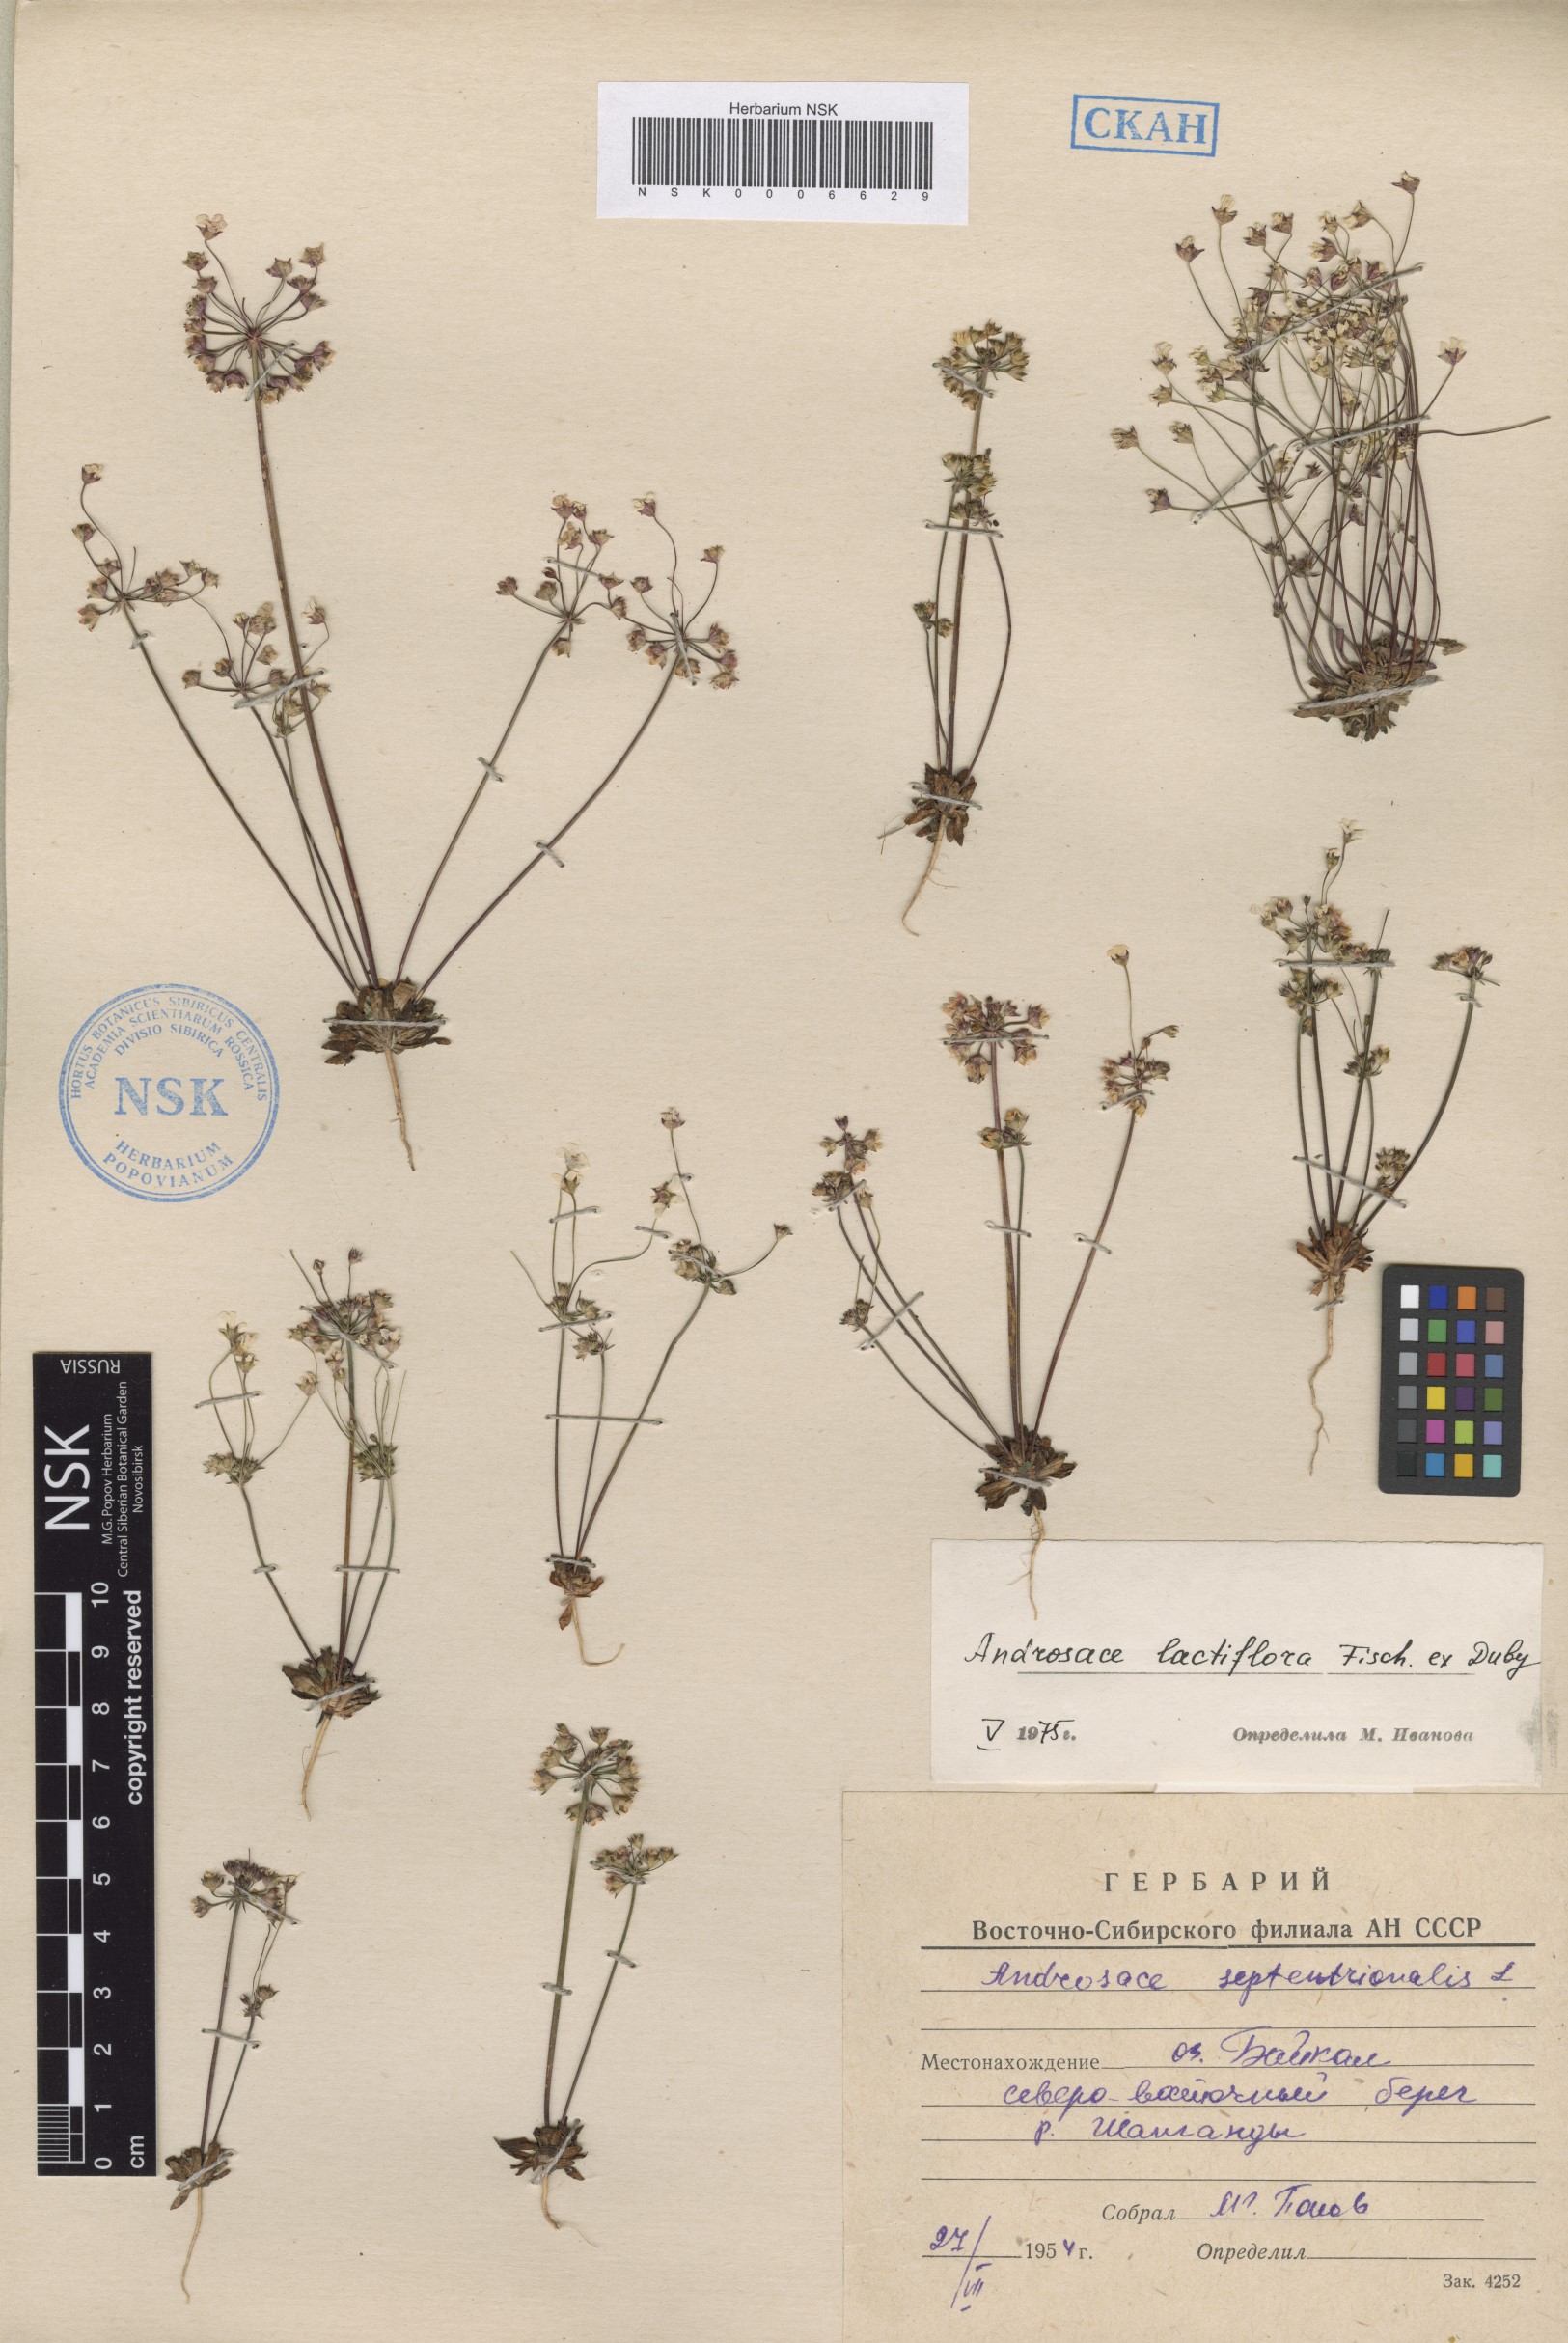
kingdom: Plantae
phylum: Tracheophyta
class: Magnoliopsida
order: Ericales
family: Primulaceae
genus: Androsace
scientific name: Androsace lactiflora
